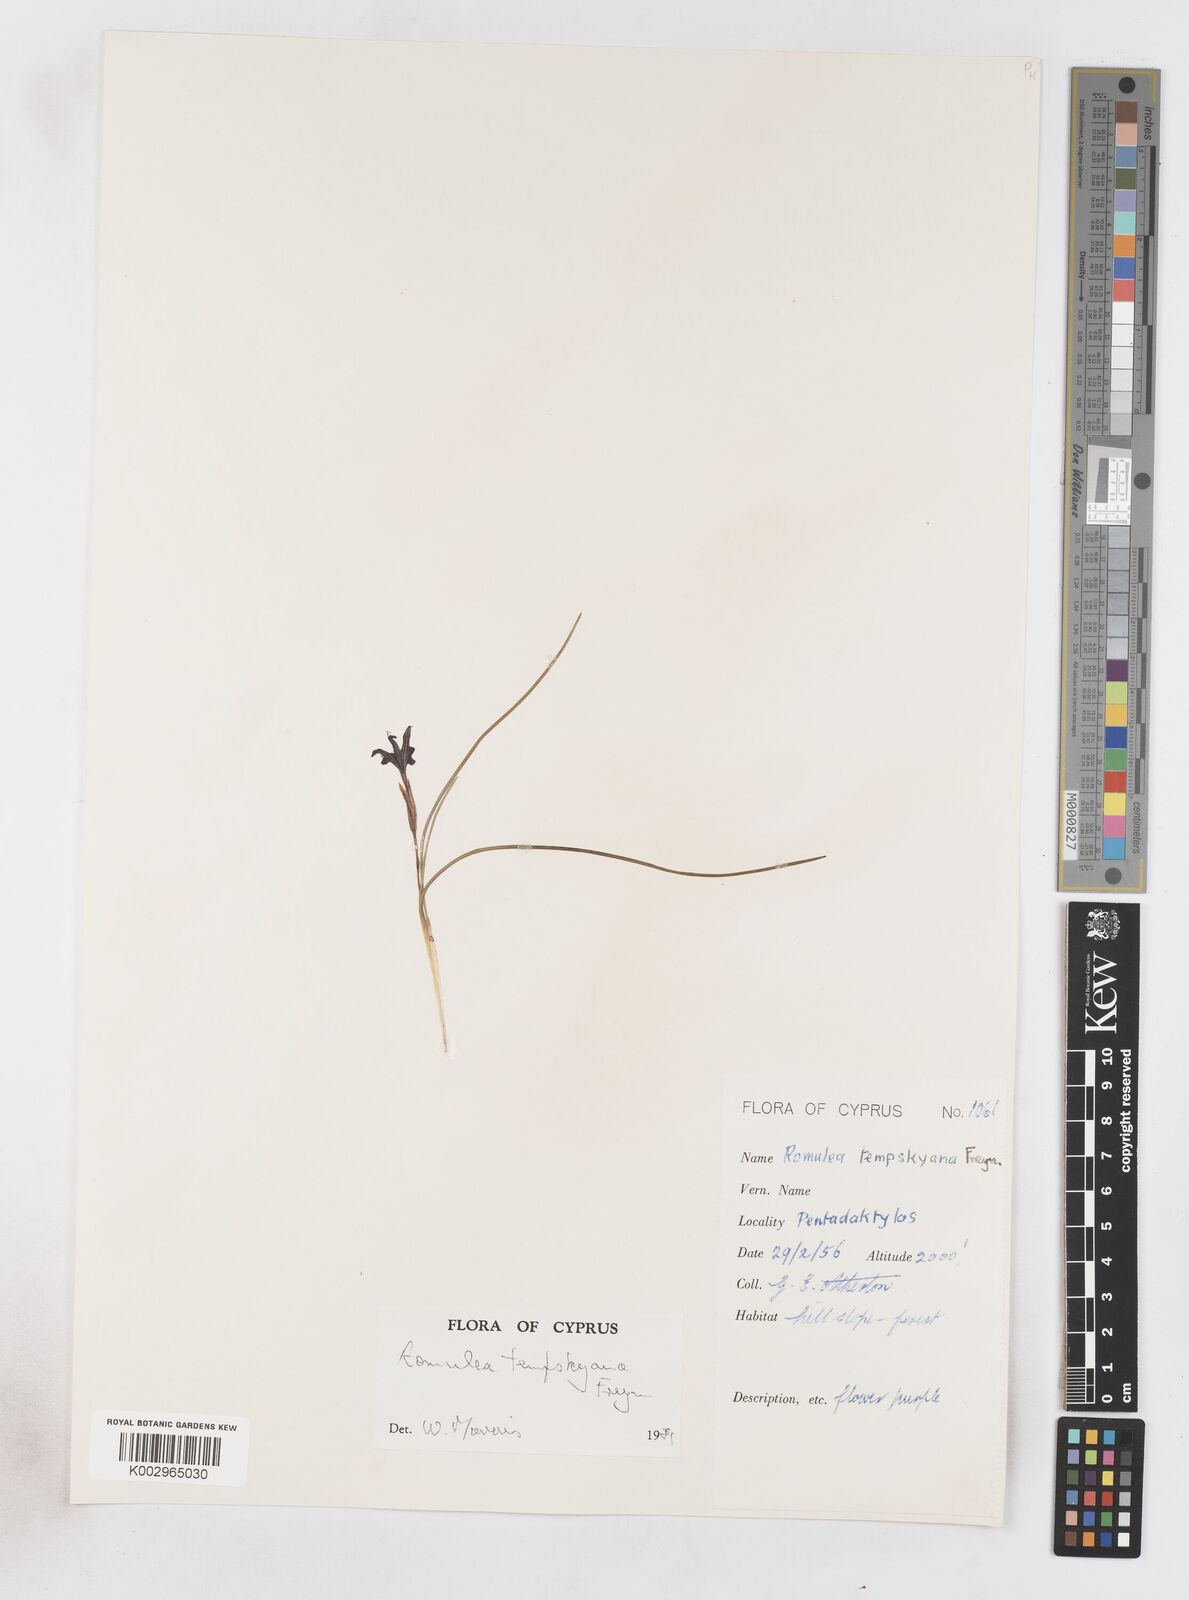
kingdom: Plantae
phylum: Tracheophyta
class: Liliopsida
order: Asparagales
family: Iridaceae
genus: Romulea
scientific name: Romulea tempskyana
